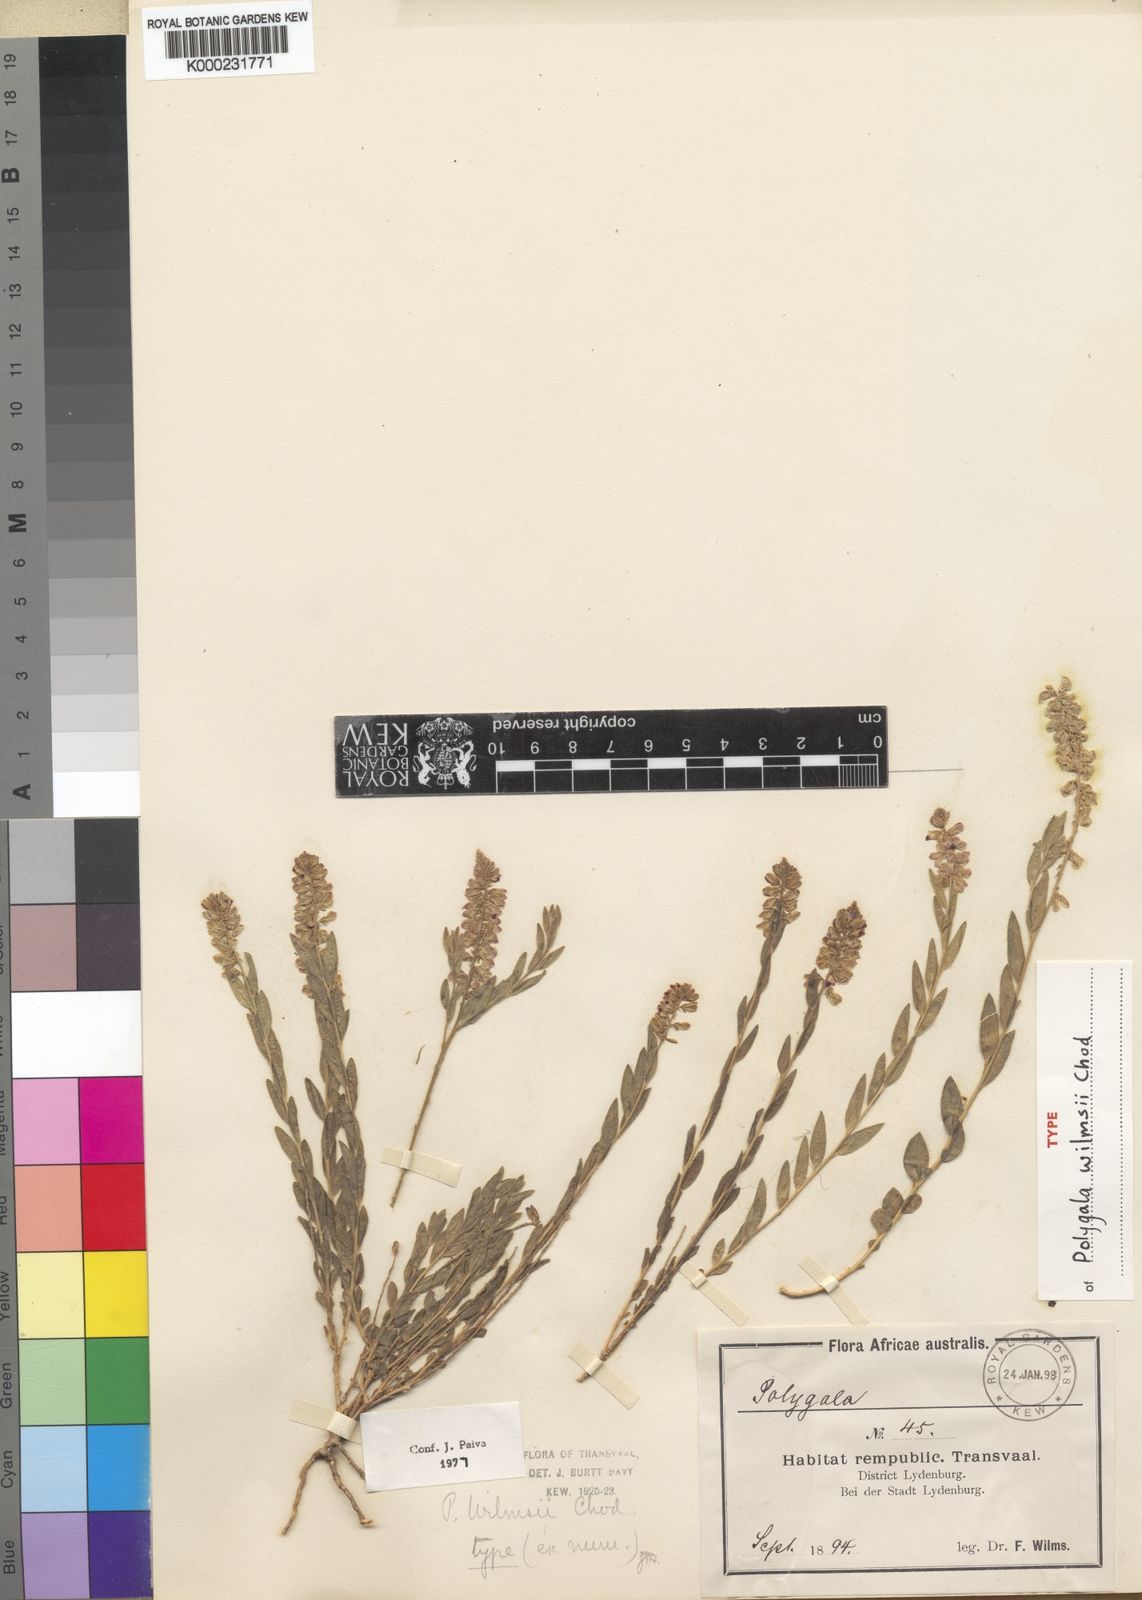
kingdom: Plantae
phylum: Tracheophyta
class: Magnoliopsida
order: Fabales
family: Polygalaceae
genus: Polygala
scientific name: Polygala wilmsii
